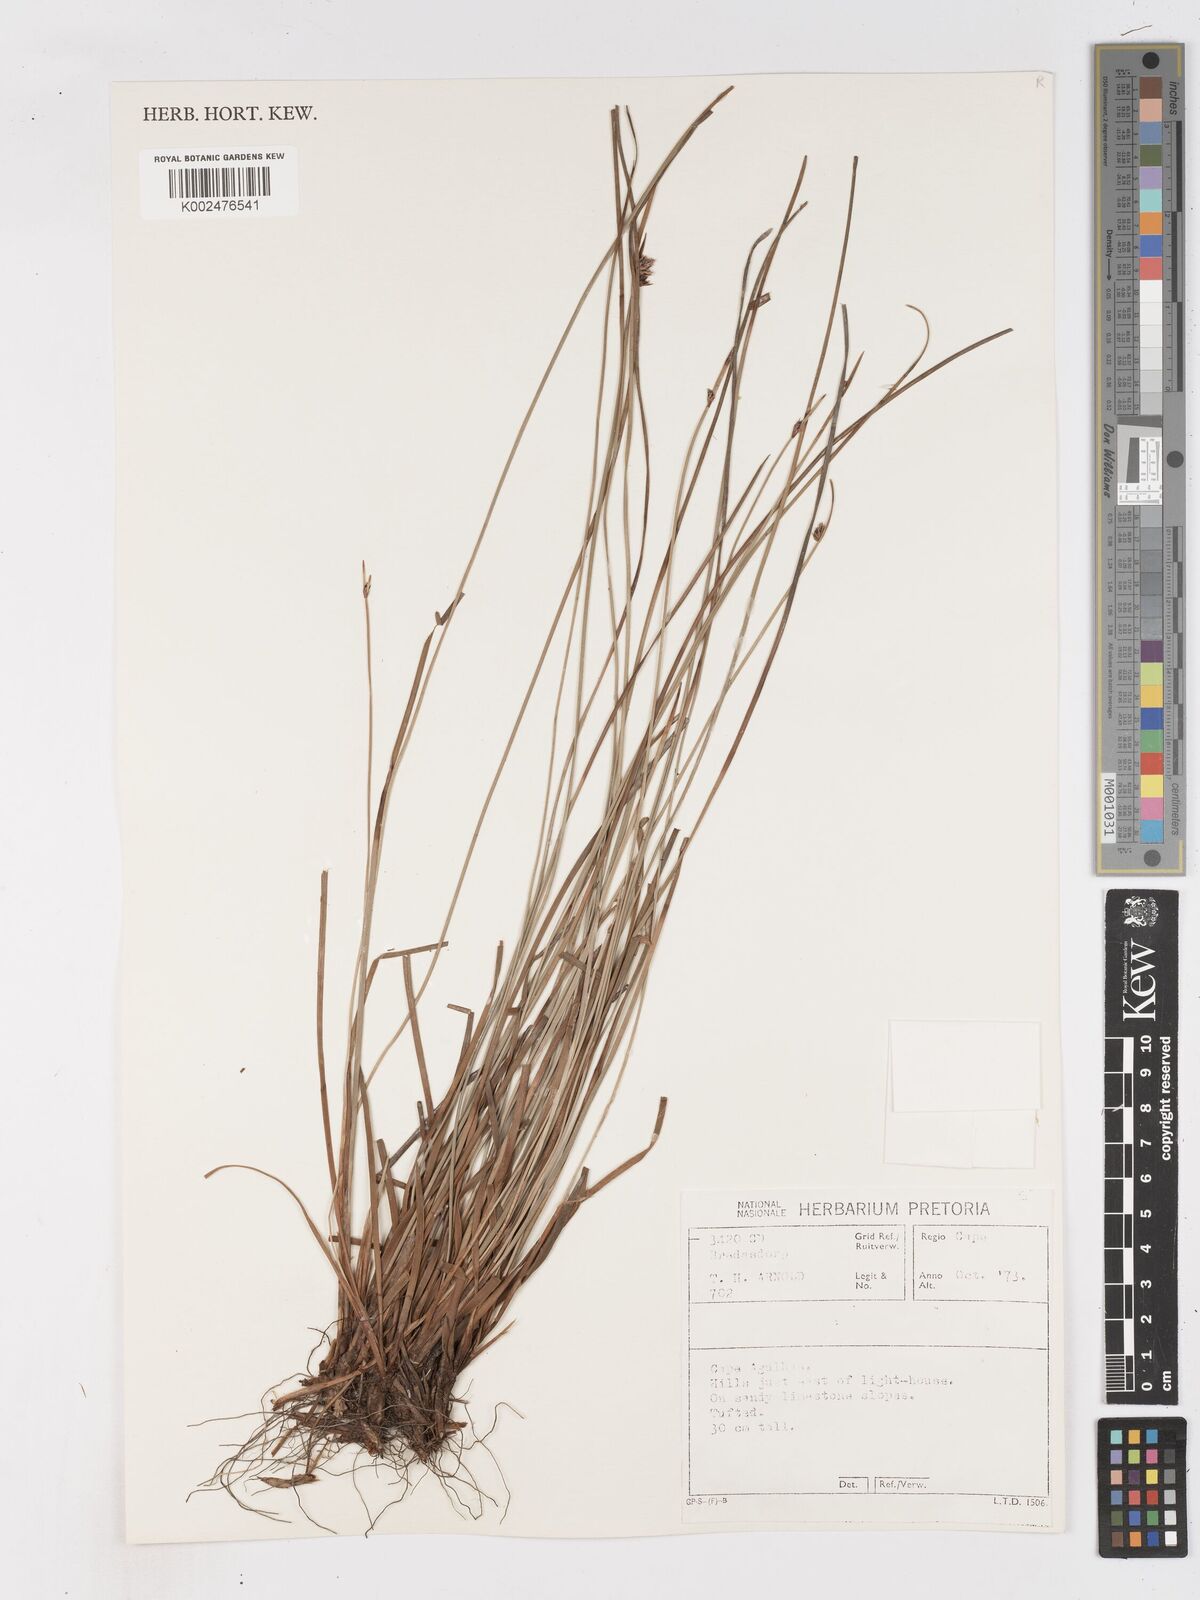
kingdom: Plantae
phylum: Tracheophyta
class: Liliopsida
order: Poales
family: Cyperaceae
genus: Ficinia
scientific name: Ficinia
